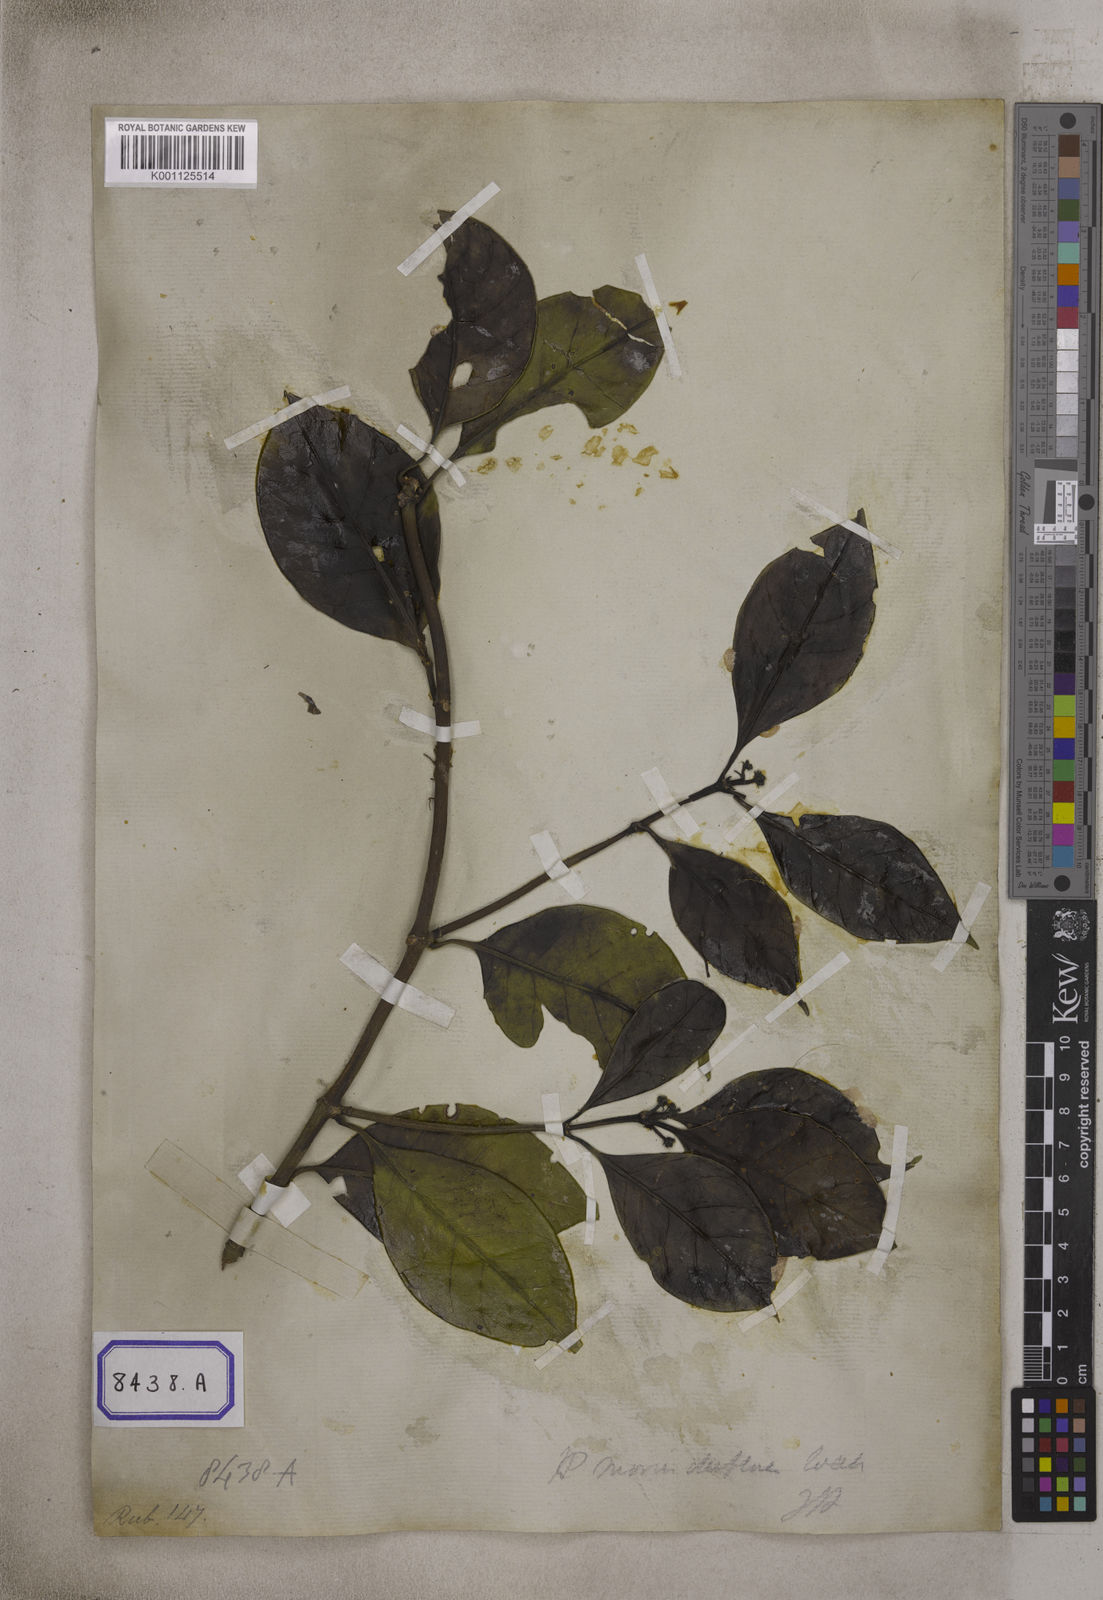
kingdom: Plantae
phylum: Tracheophyta
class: Magnoliopsida
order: Gentianales
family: Rubiaceae
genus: Psychotria
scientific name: Psychotria
